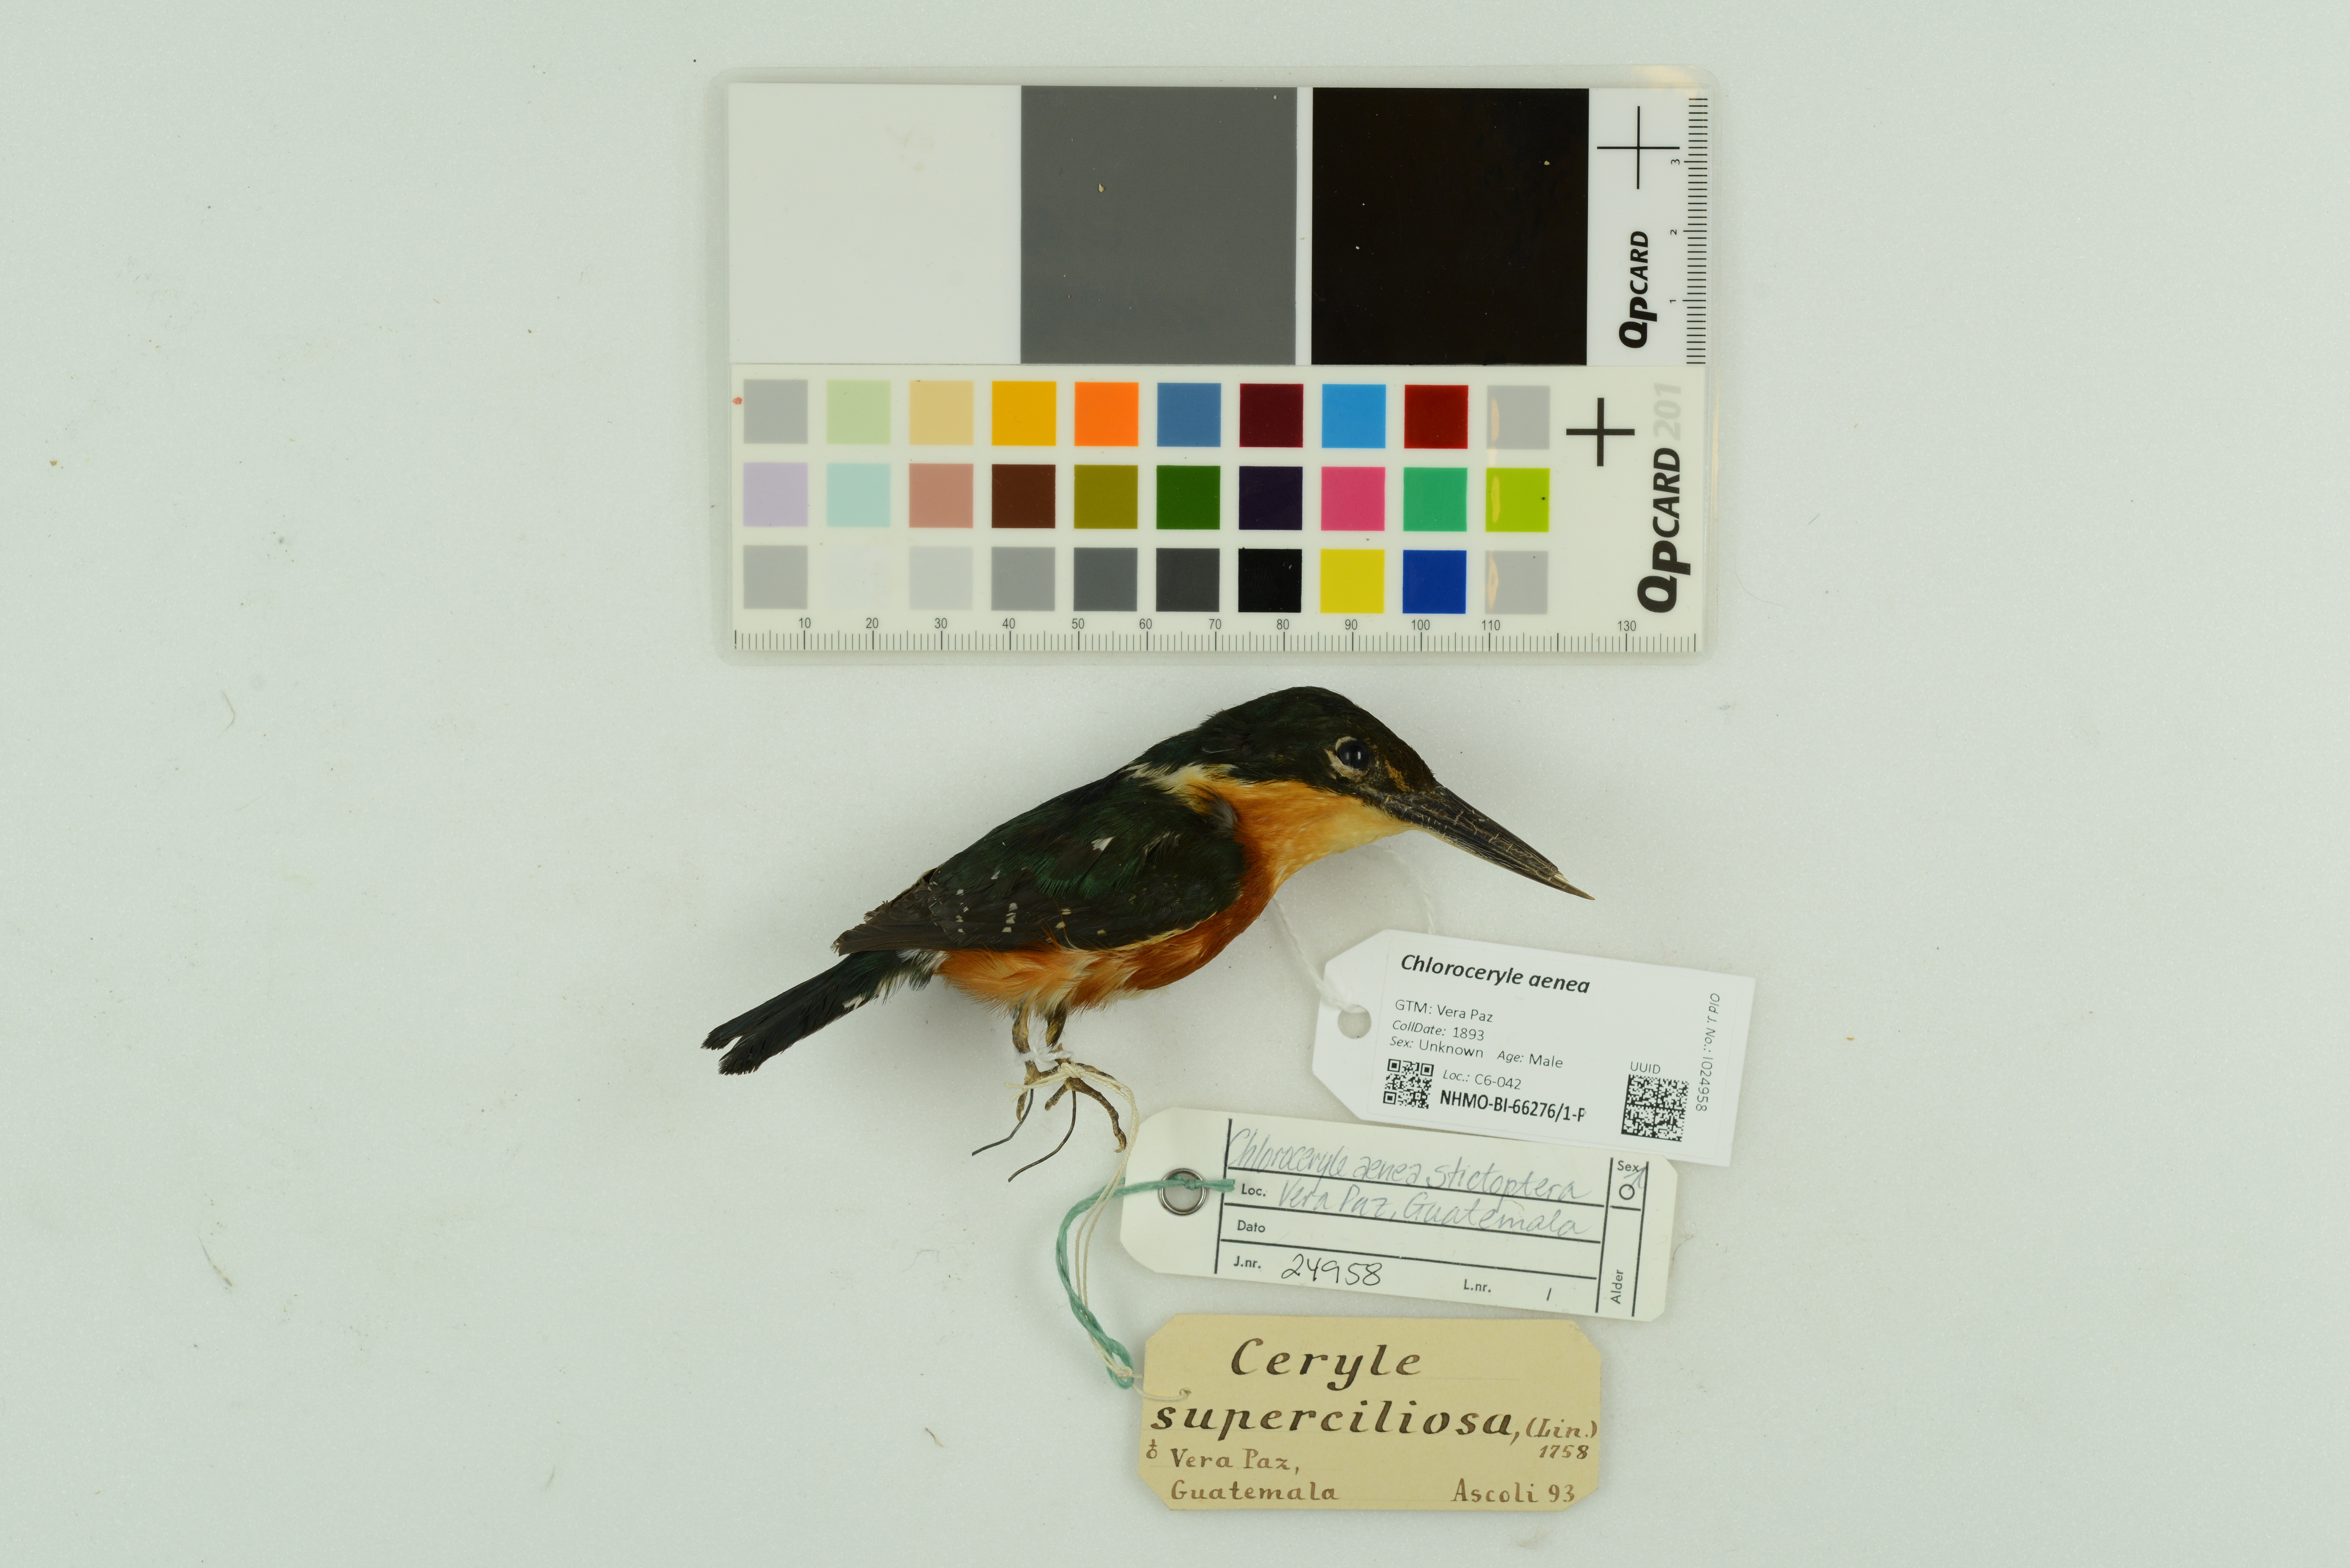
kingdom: Animalia
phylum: Chordata
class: Aves
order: Coraciiformes
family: Alcedinidae
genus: Chloroceryle
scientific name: Chloroceryle aenea
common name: American pygmy kingfisher
